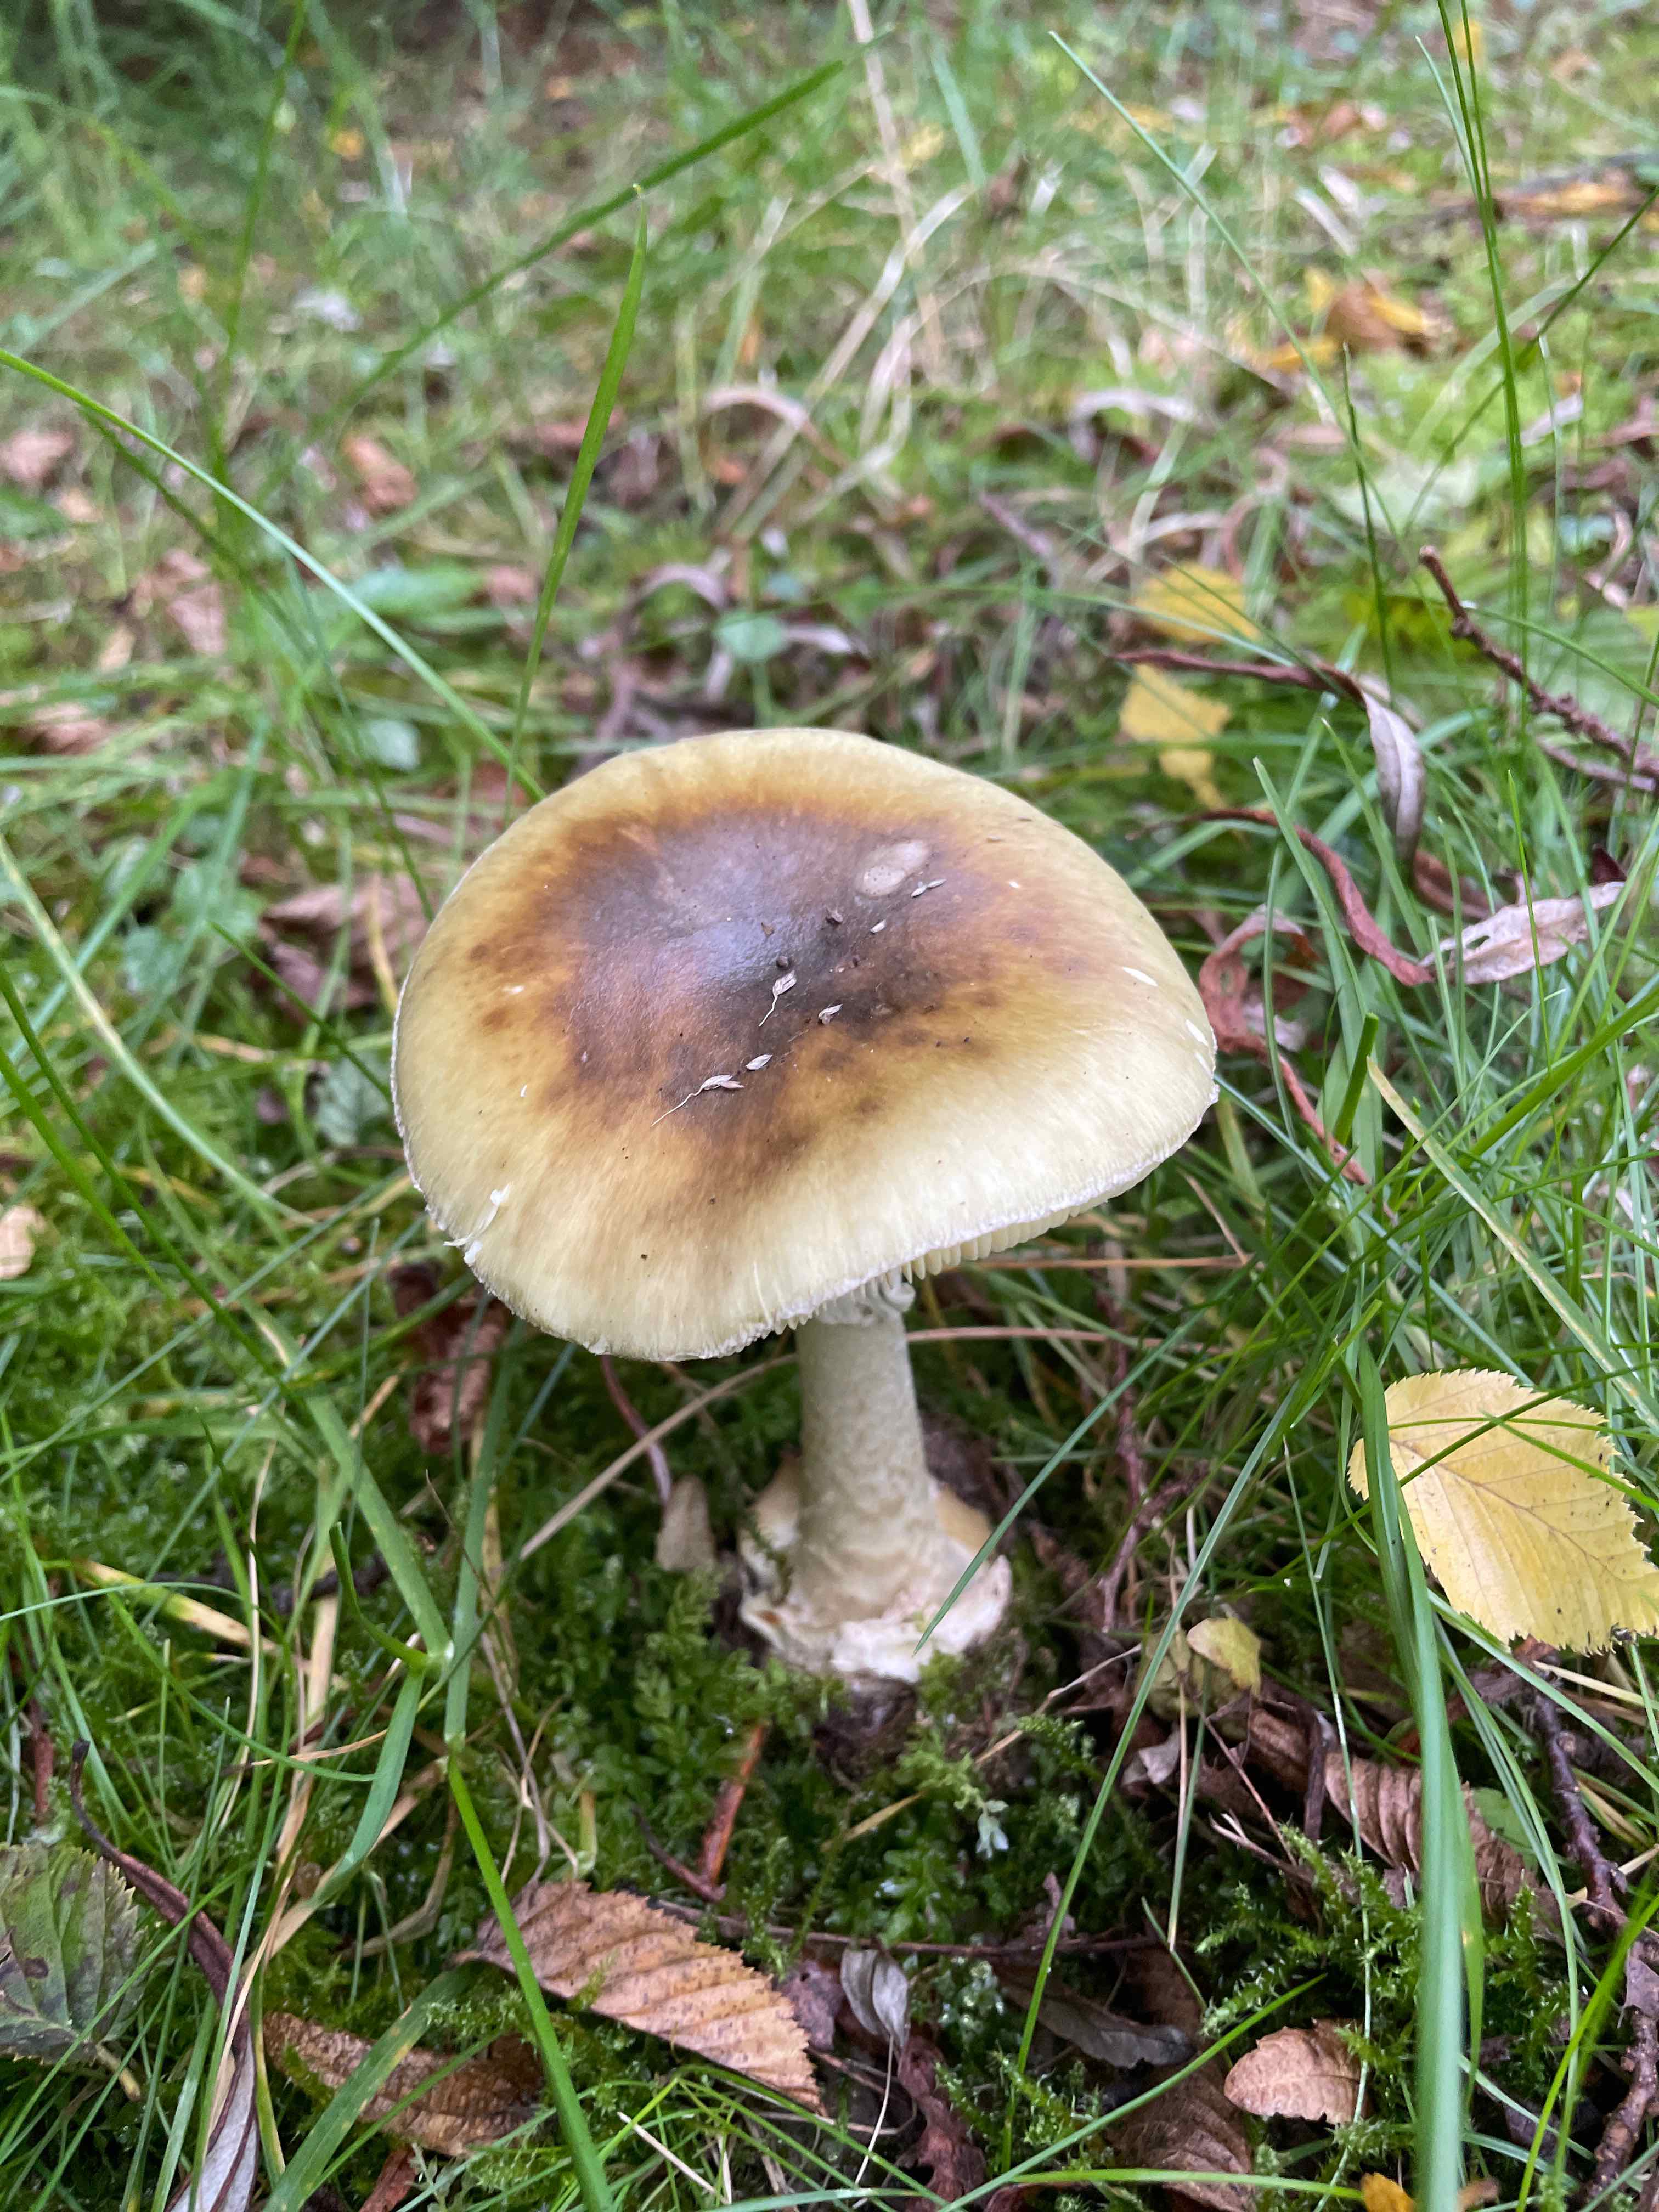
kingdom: Fungi
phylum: Basidiomycota
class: Agaricomycetes
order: Agaricales
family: Amanitaceae
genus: Amanita
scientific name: Amanita phalloides
